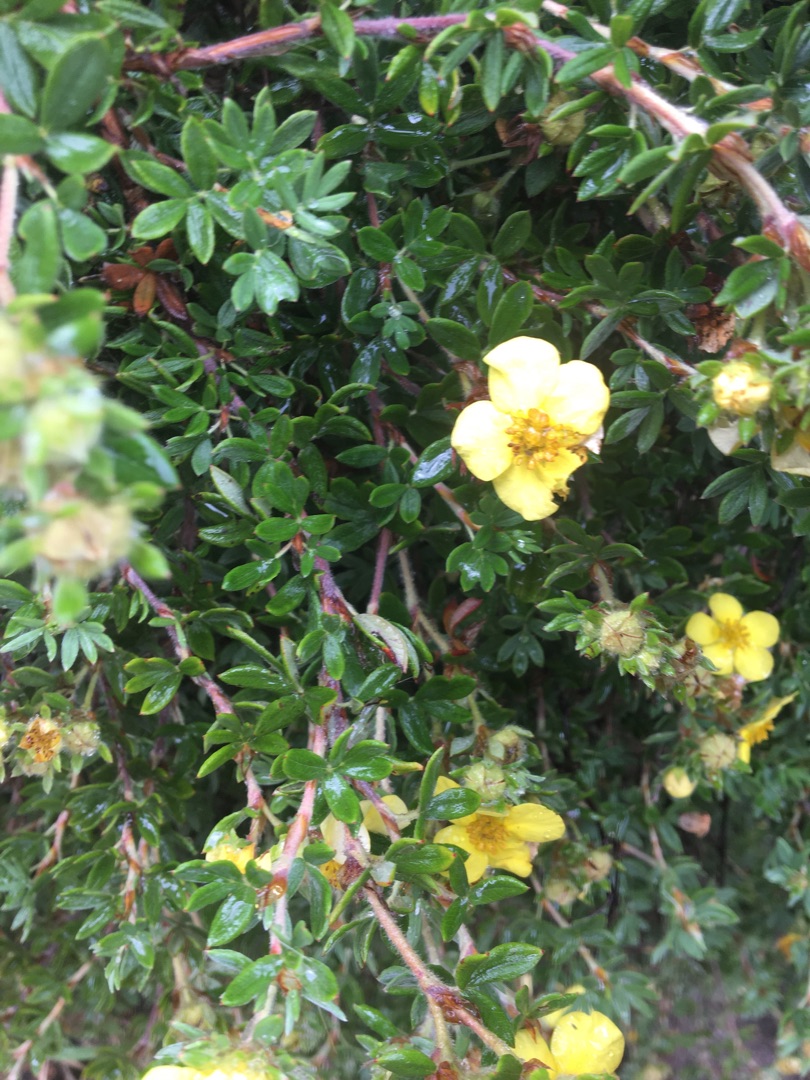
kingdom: Plantae
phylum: Tracheophyta
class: Magnoliopsida
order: Rosales
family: Rosaceae
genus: Dasiphora
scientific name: Dasiphora fruticosa
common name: Buskpotentil
